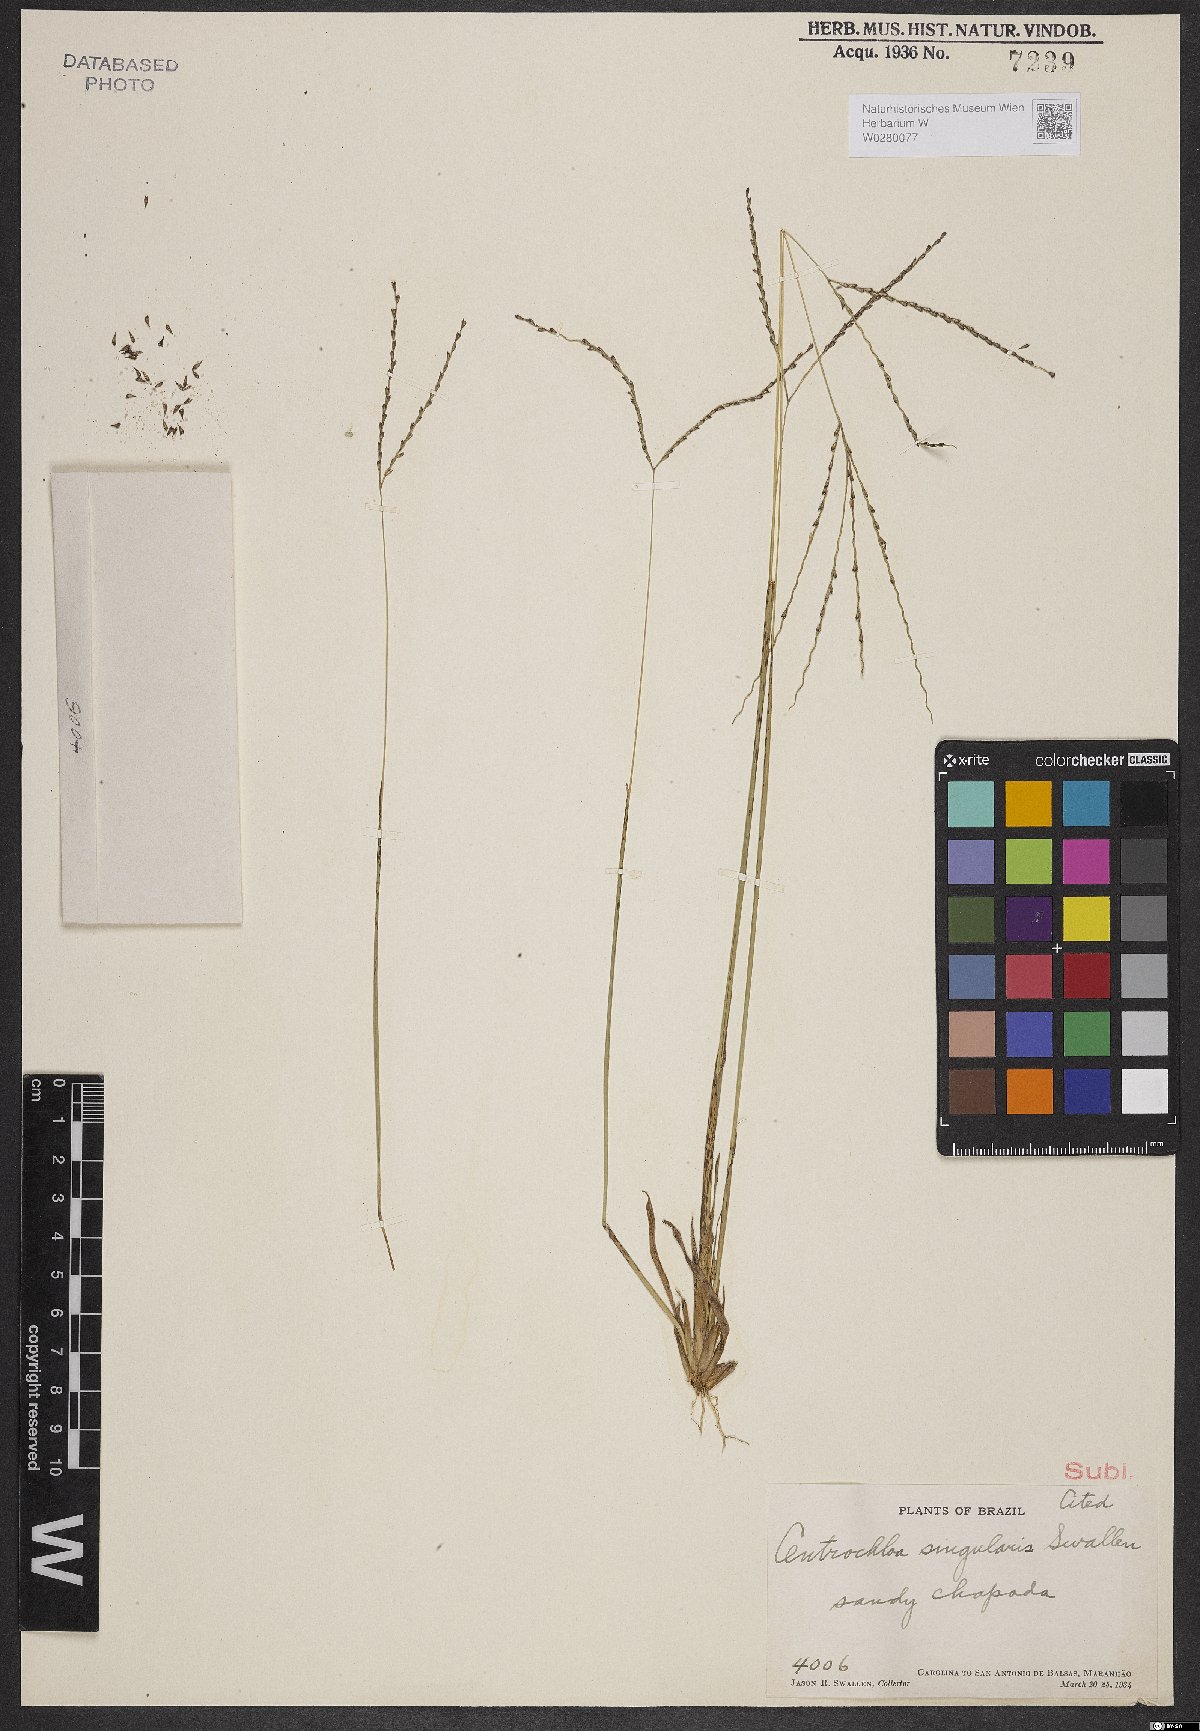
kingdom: Plantae
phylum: Tracheophyta
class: Liliopsida
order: Poales
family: Poaceae
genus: Axonopus
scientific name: Axonopus singularis
